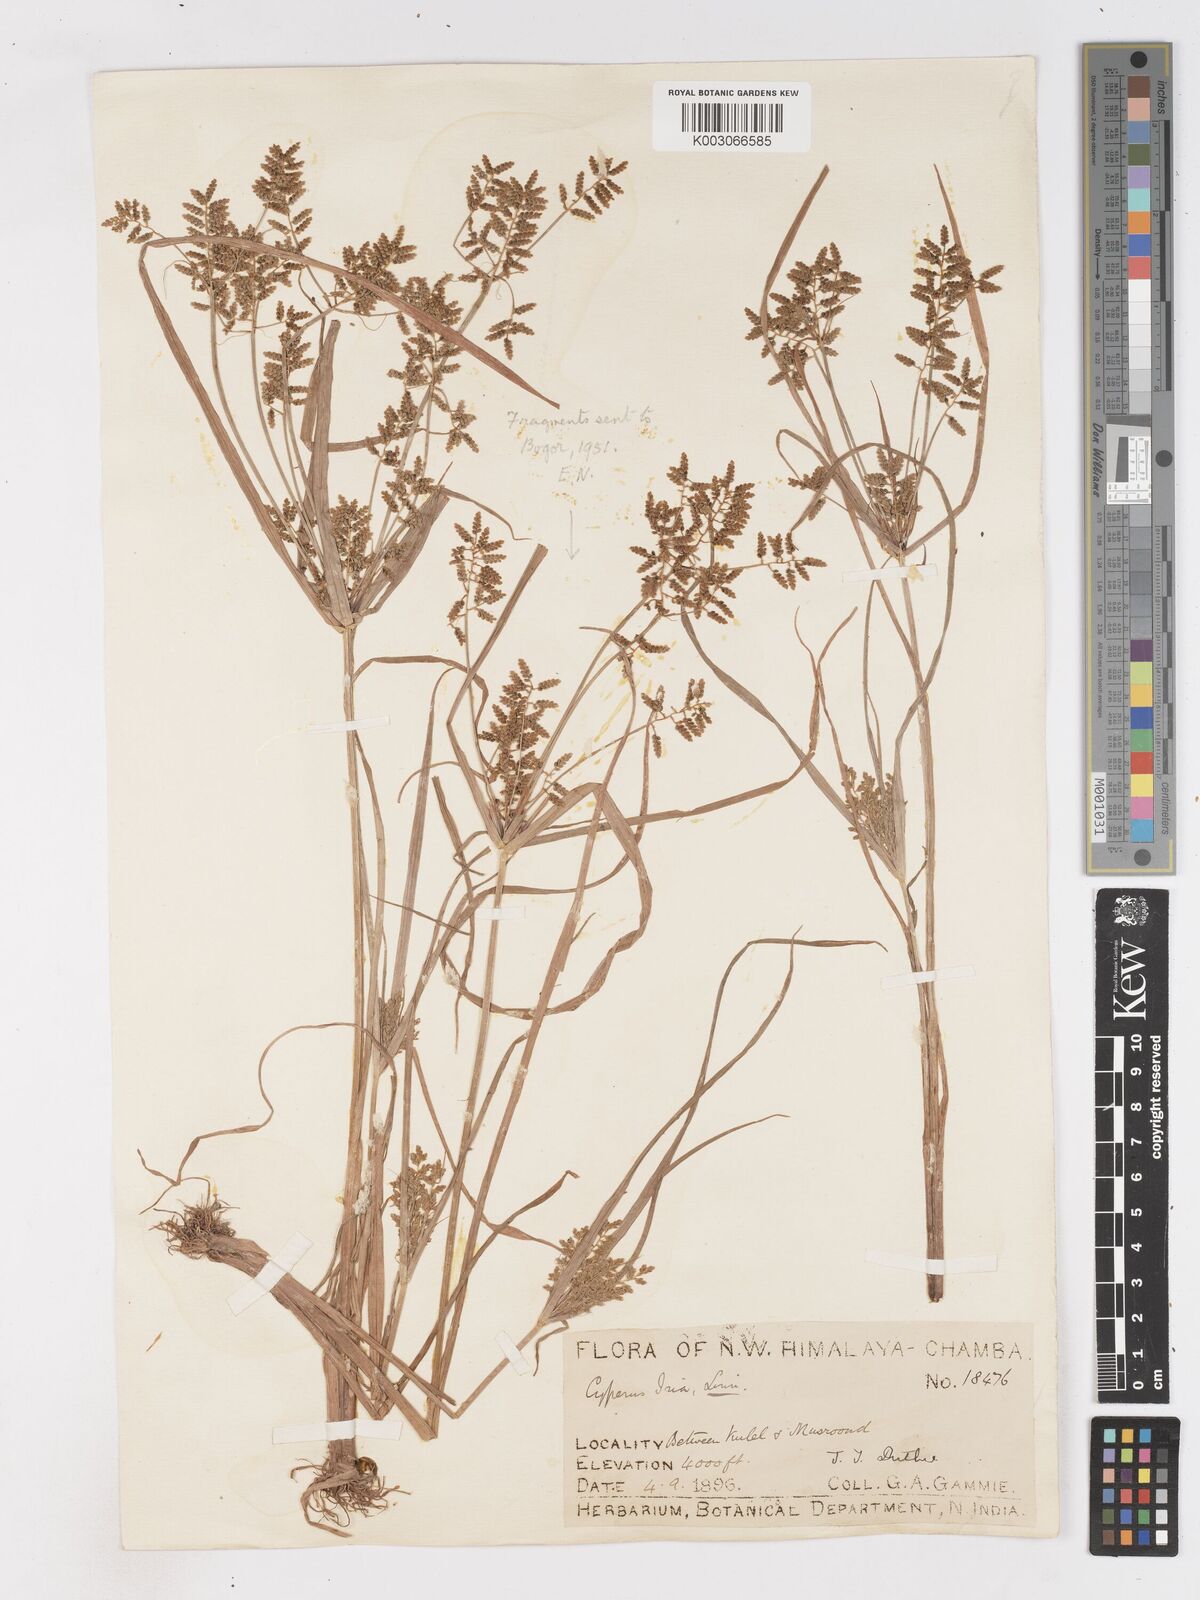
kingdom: Plantae
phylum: Tracheophyta
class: Liliopsida
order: Poales
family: Cyperaceae
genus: Cyperus
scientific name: Cyperus alulatus
